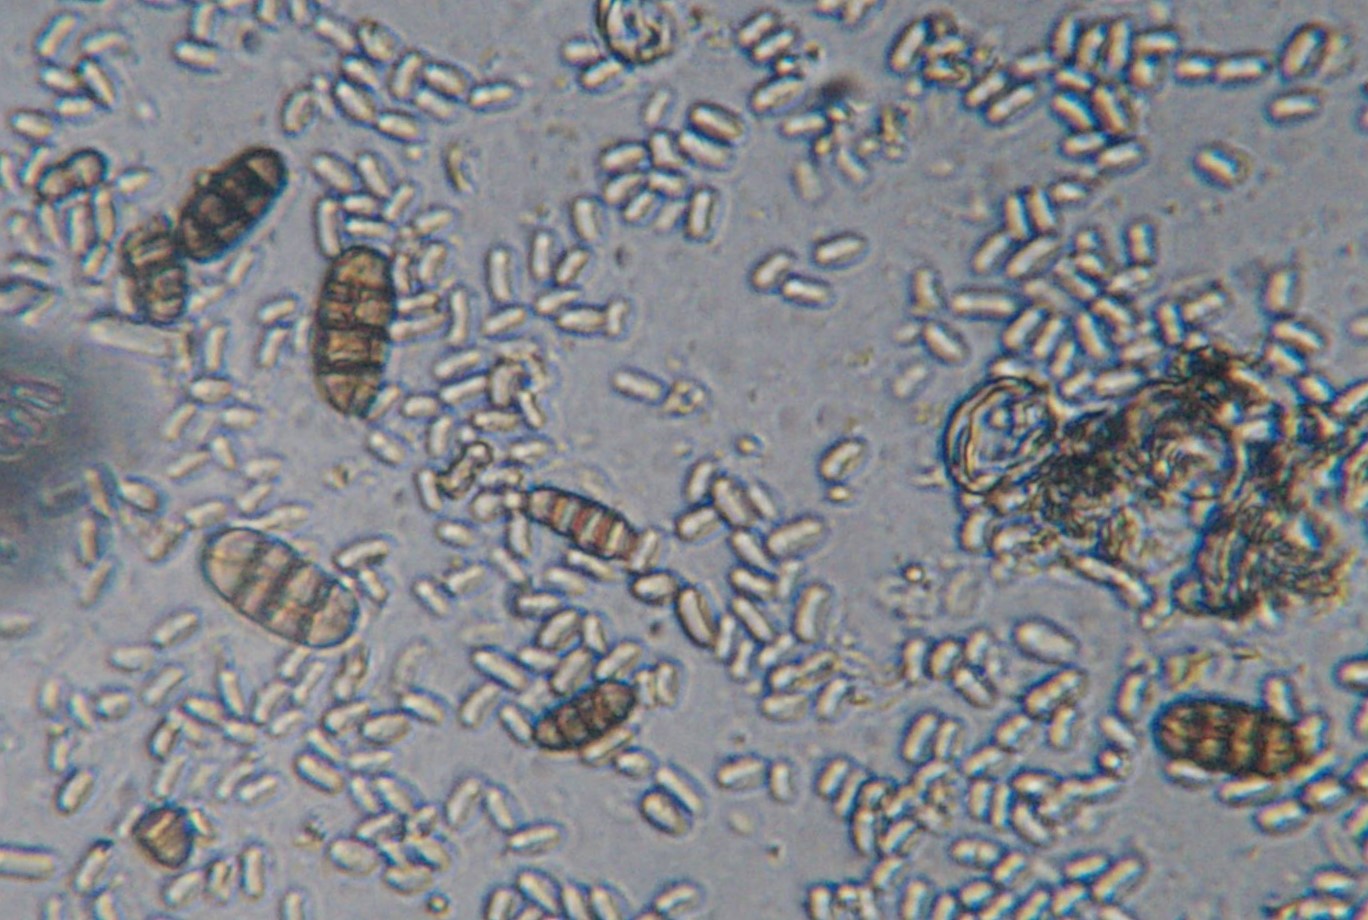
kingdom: Fungi
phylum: Ascomycota
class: Dothideomycetes
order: Pleosporales
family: Camarosporidiellaceae
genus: Camarosporidiella
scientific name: Camarosporidiella laburni
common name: guldregn-tykbær
